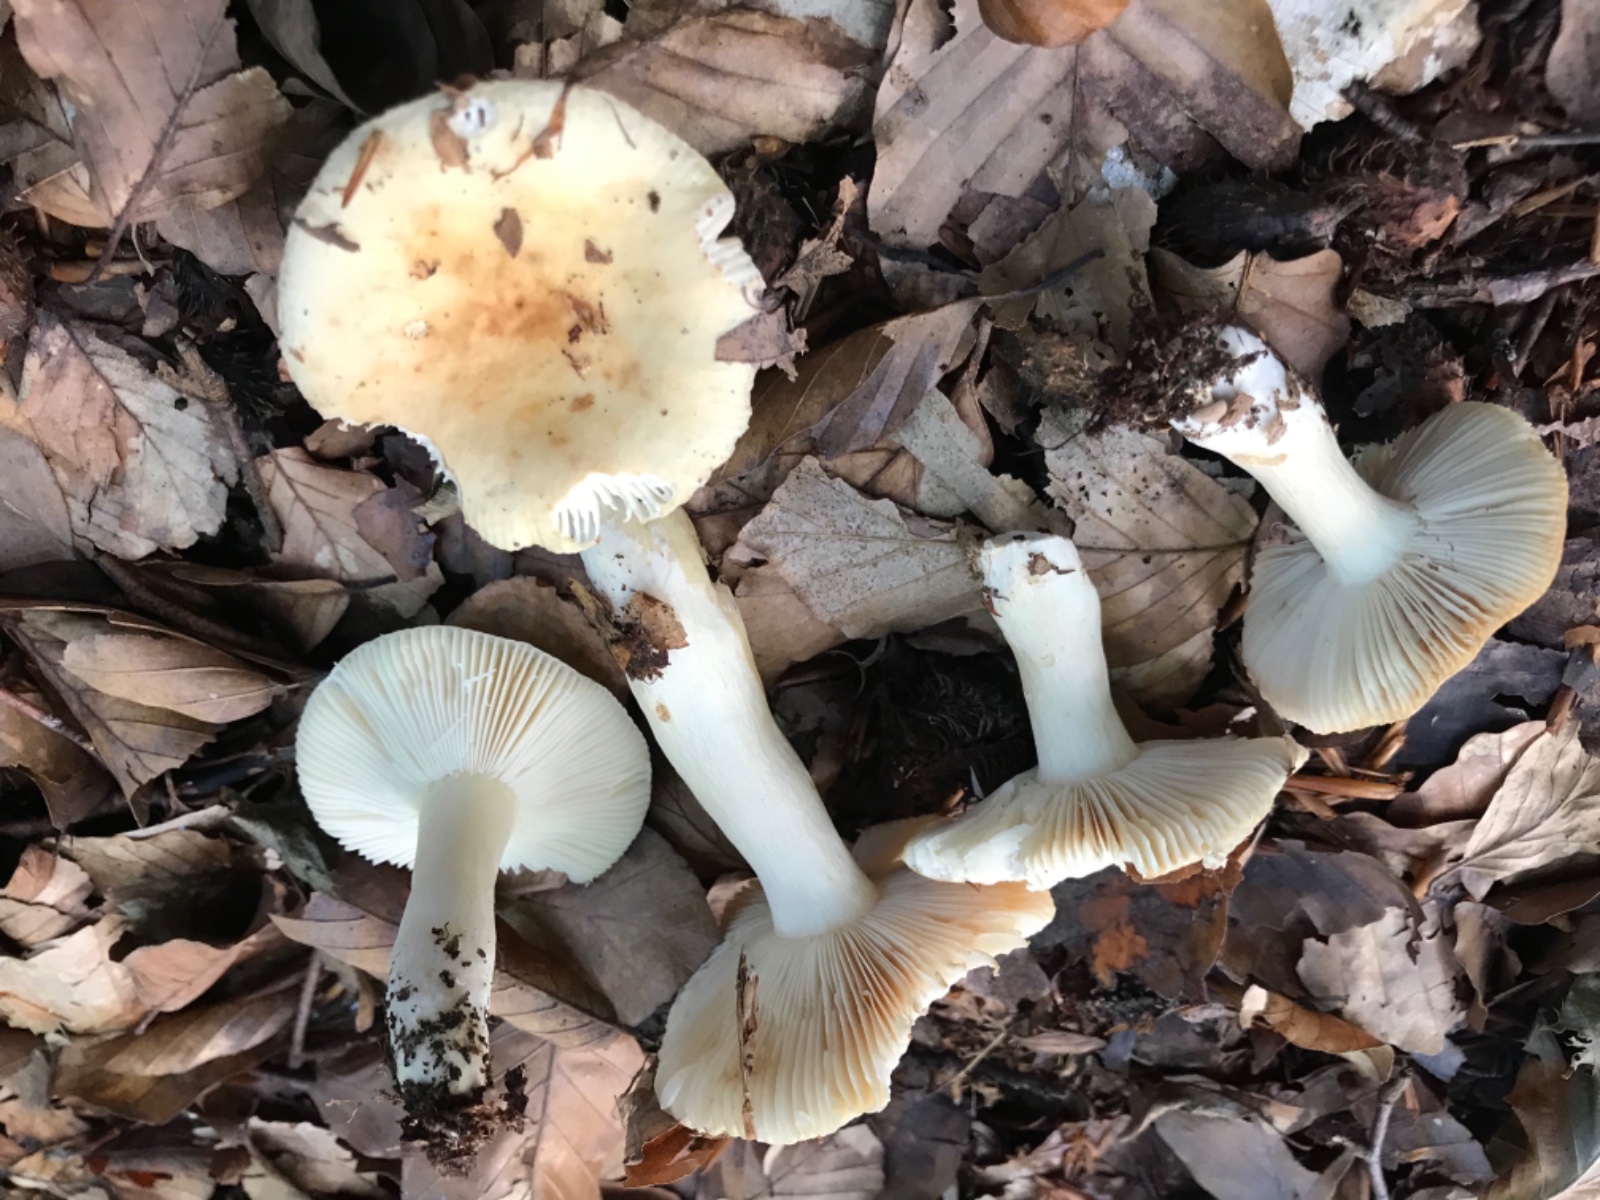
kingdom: Fungi
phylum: Basidiomycota
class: Agaricomycetes
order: Russulales
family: Russulaceae
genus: Russula
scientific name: Russula fellea
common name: galde-skørhat
